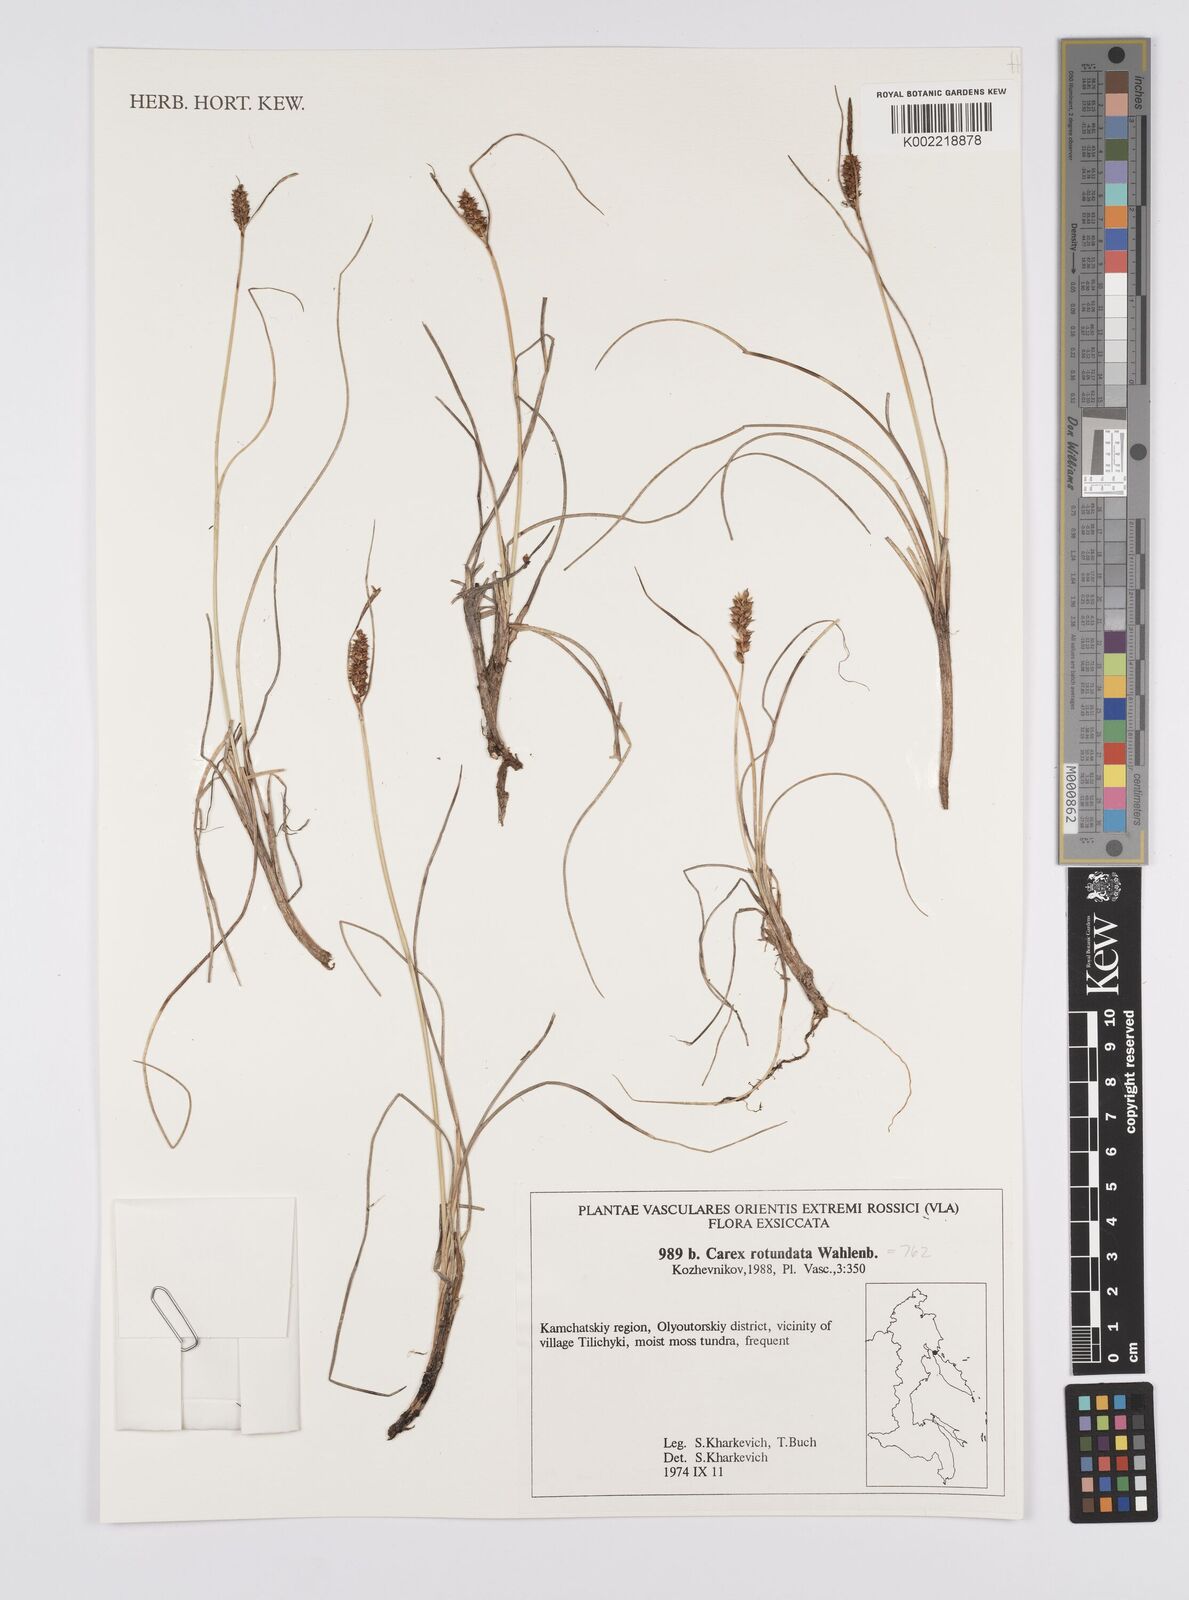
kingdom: Plantae
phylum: Tracheophyta
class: Liliopsida
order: Poales
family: Cyperaceae
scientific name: Cyperaceae
